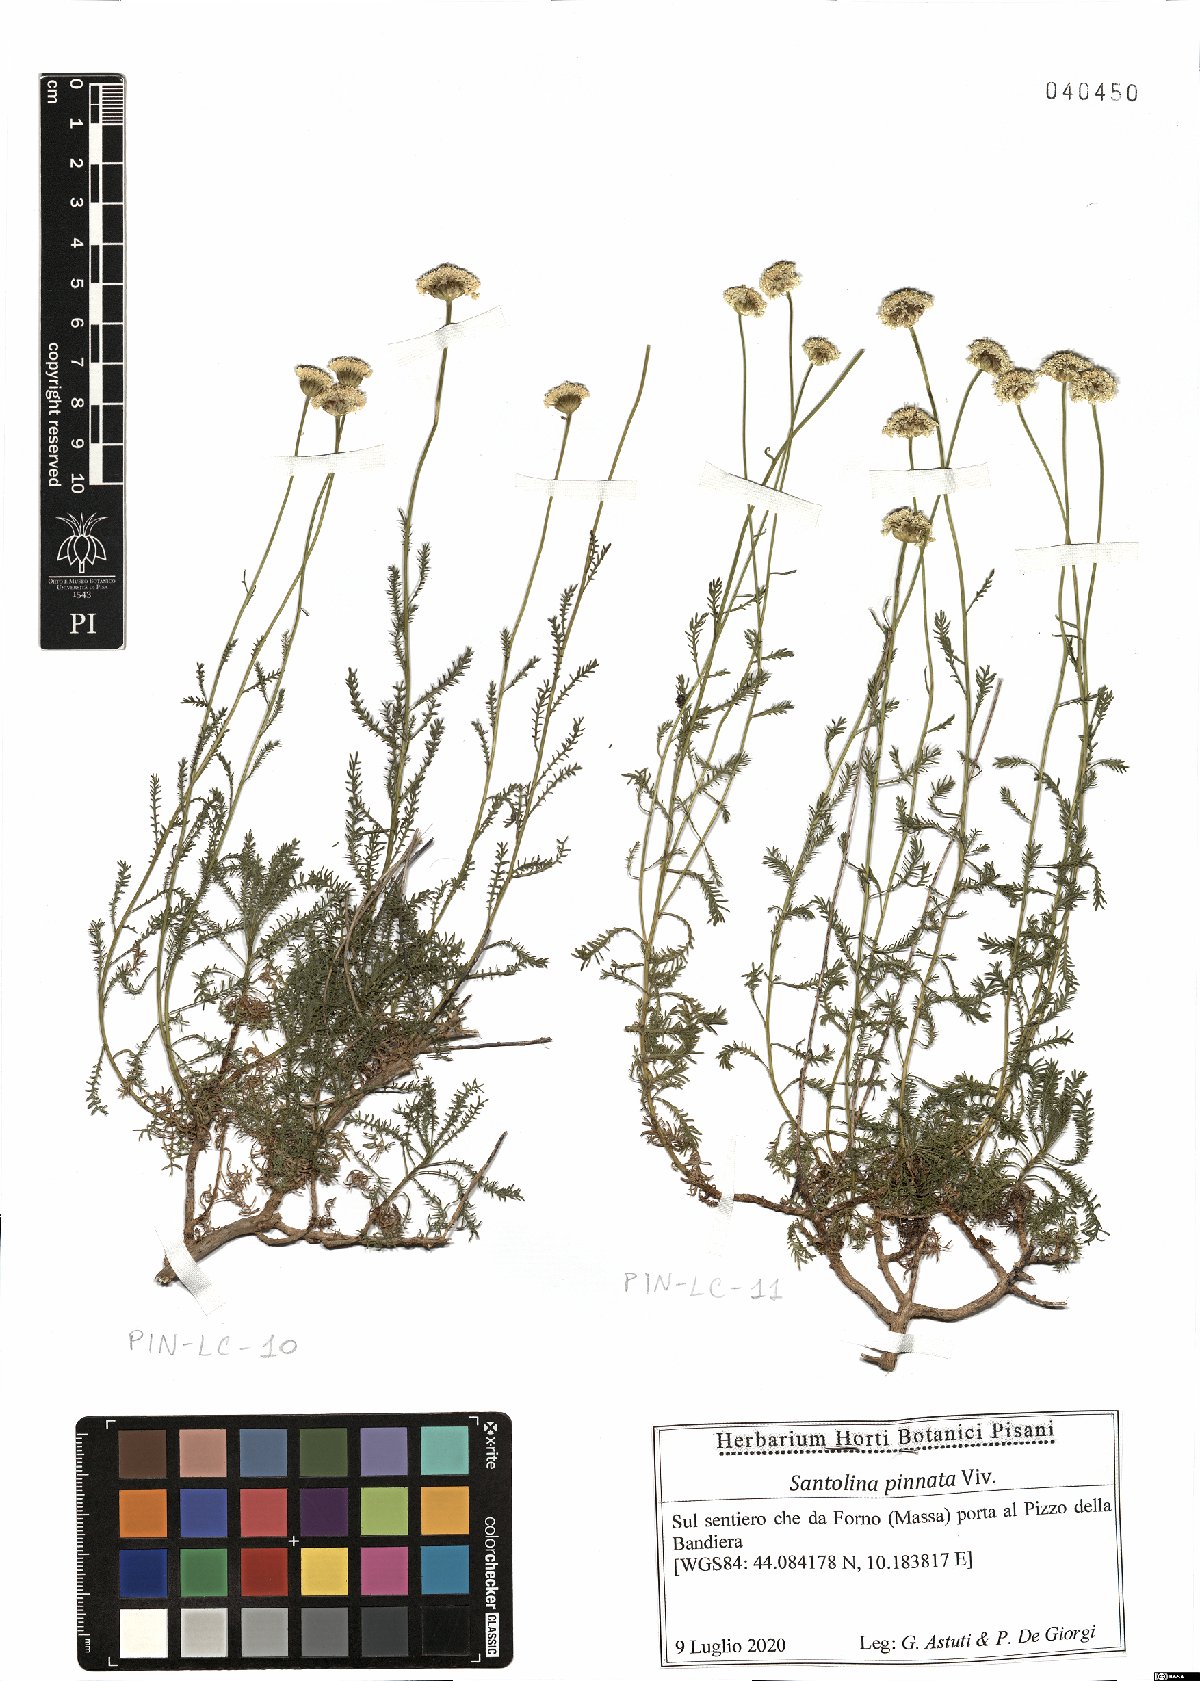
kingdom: Plantae
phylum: Tracheophyta
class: Magnoliopsida
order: Asterales
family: Asteraceae
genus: Santolina
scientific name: Santolina pinnata
